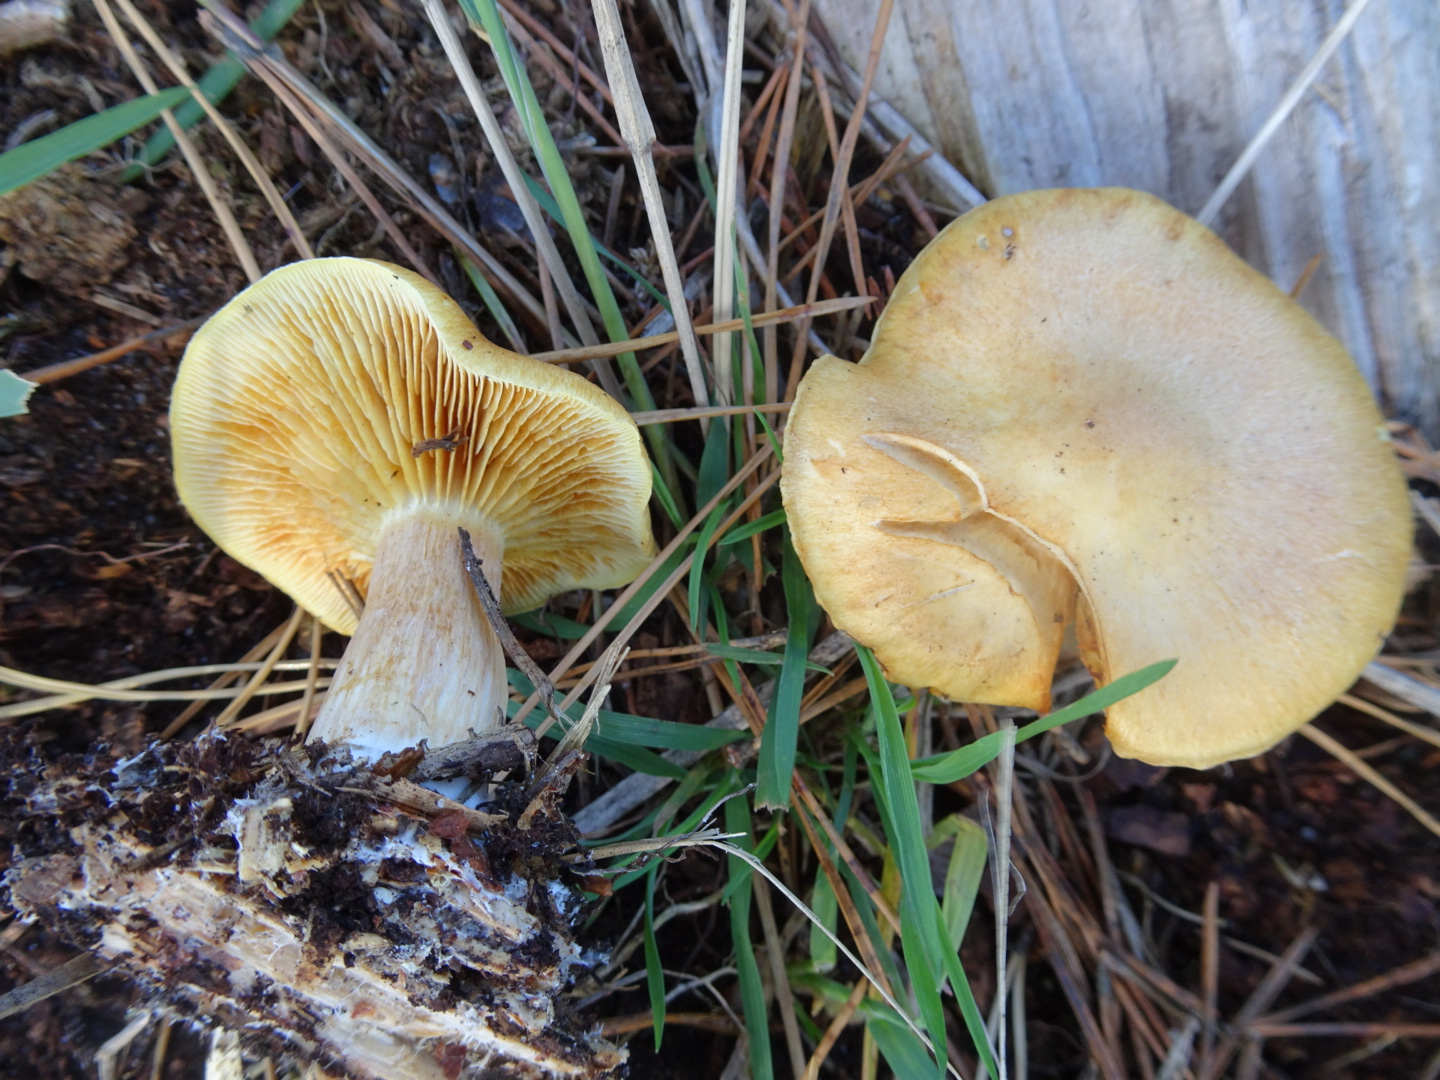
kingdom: Fungi
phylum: Basidiomycota
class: Agaricomycetes
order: Agaricales
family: Hymenogastraceae
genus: Gymnopilus
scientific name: Gymnopilus penetrans
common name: plettet flammehat
